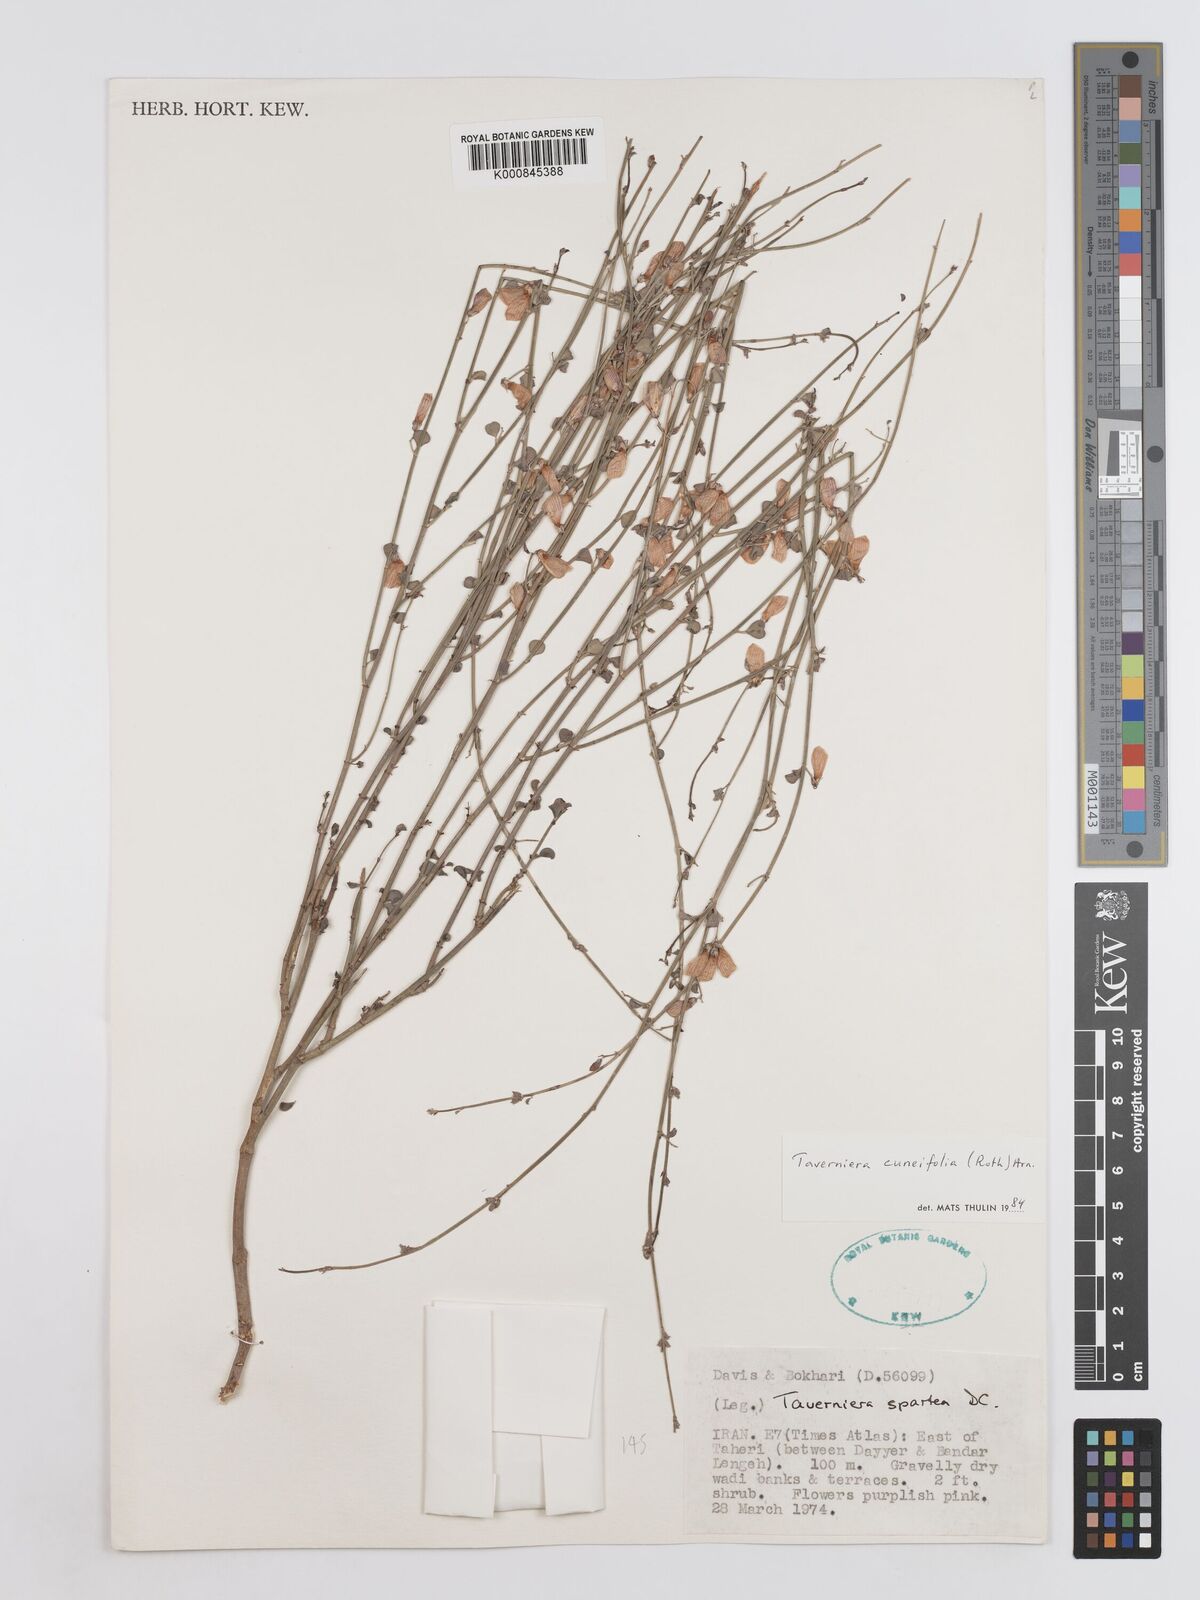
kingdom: Plantae
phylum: Tracheophyta
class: Magnoliopsida
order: Fabales
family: Fabaceae
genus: Taverniera
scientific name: Taverniera
